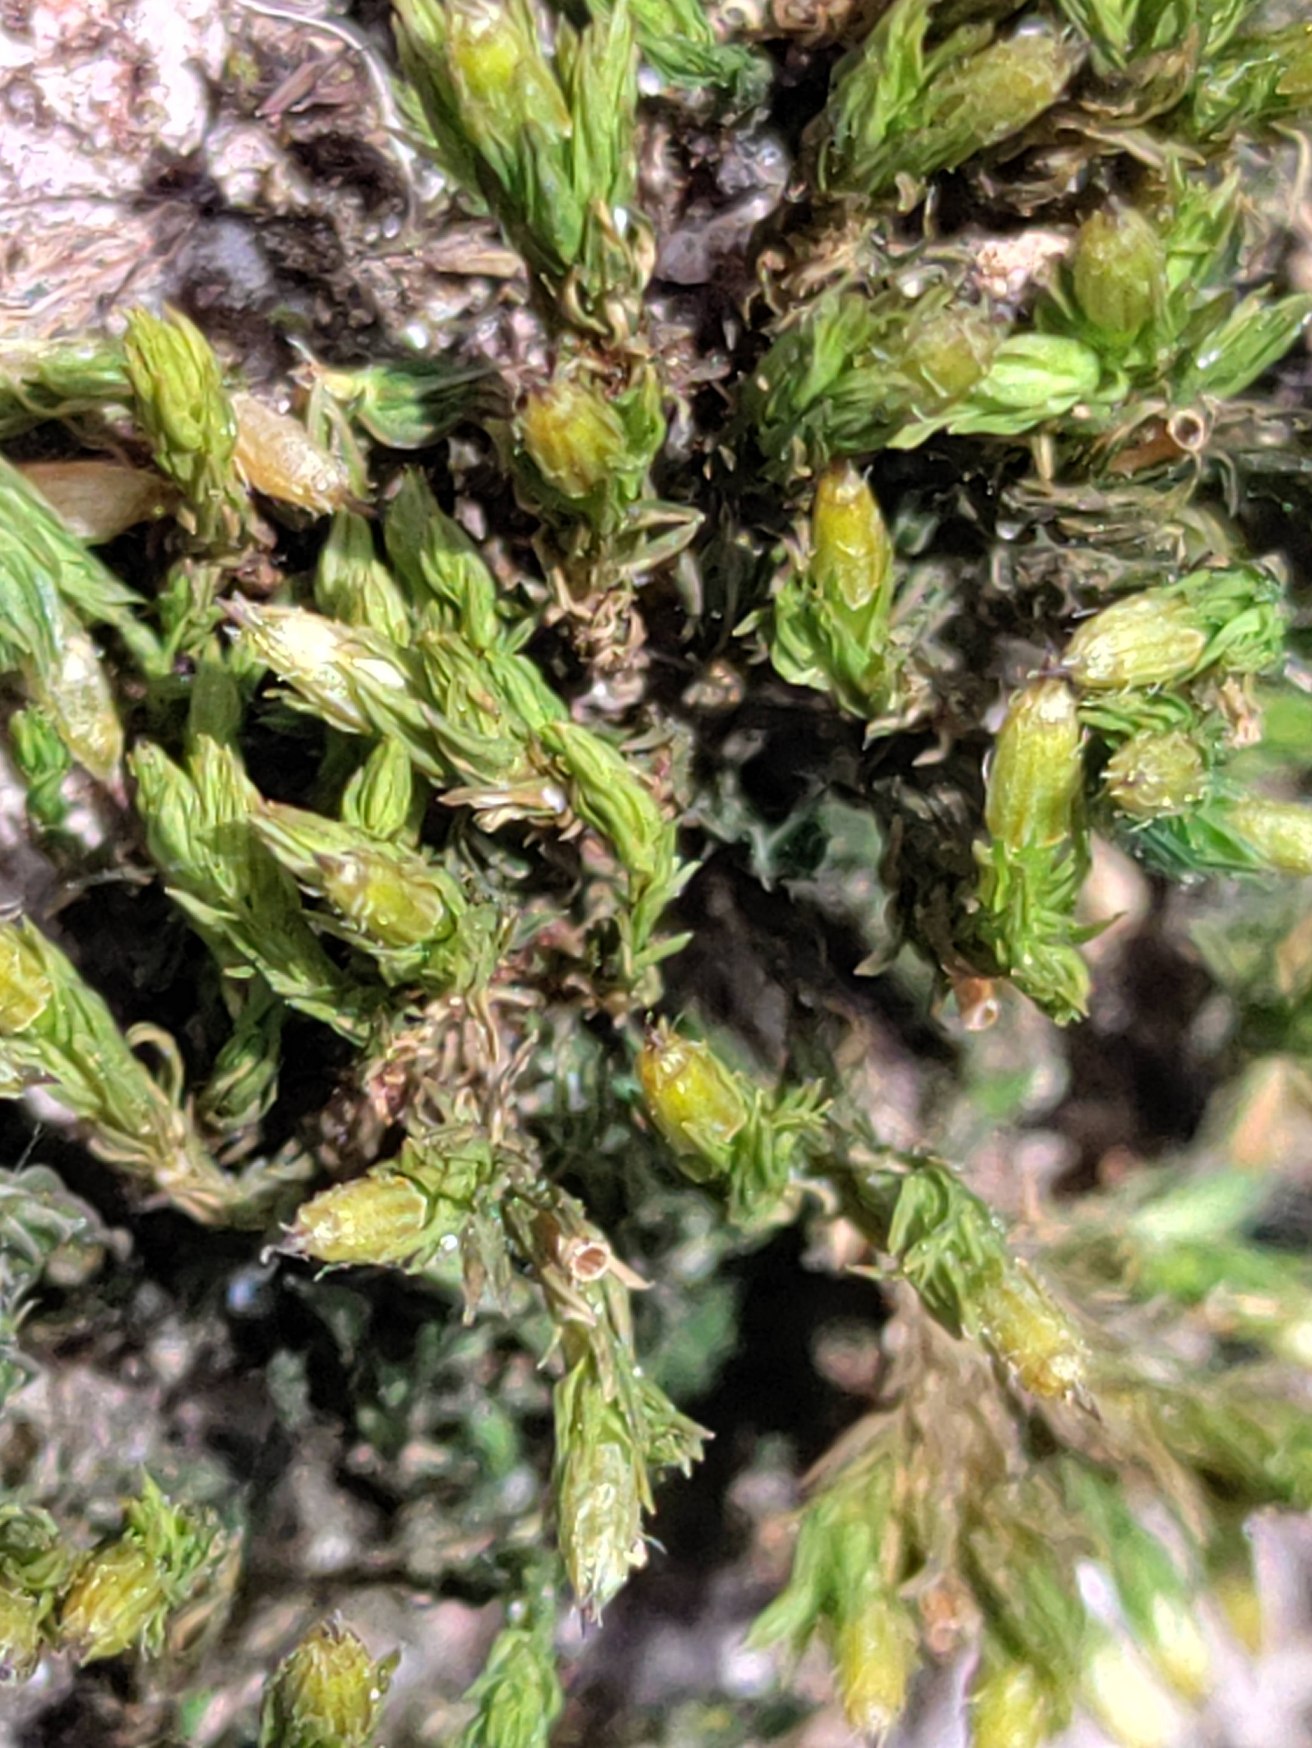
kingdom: Plantae
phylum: Bryophyta
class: Bryopsida
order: Orthotrichales
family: Orthotrichaceae
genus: Lewinskya
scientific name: Lewinskya affinis
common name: Almindelig furehætte
